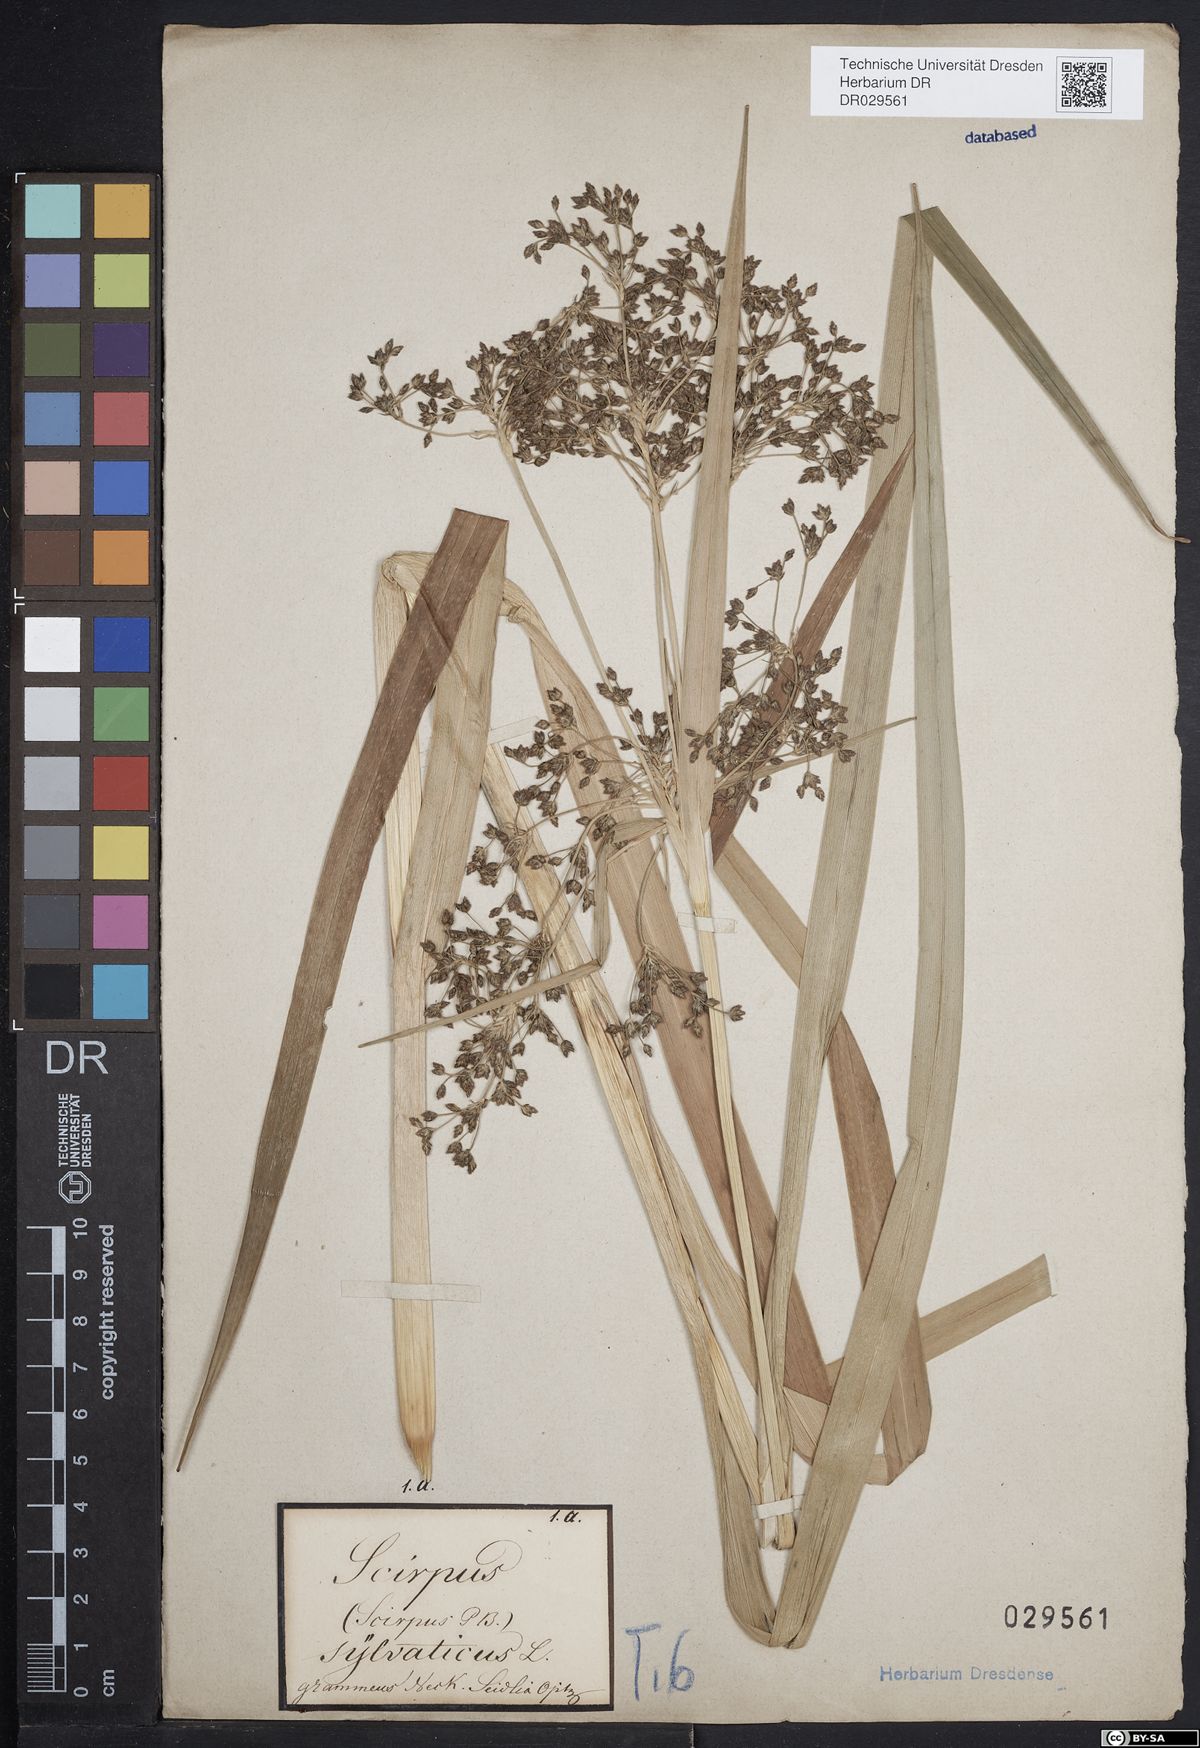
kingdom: Plantae
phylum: Tracheophyta
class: Liliopsida
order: Poales
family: Cyperaceae
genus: Scirpus
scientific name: Scirpus sylvaticus
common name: Wood club-rush
